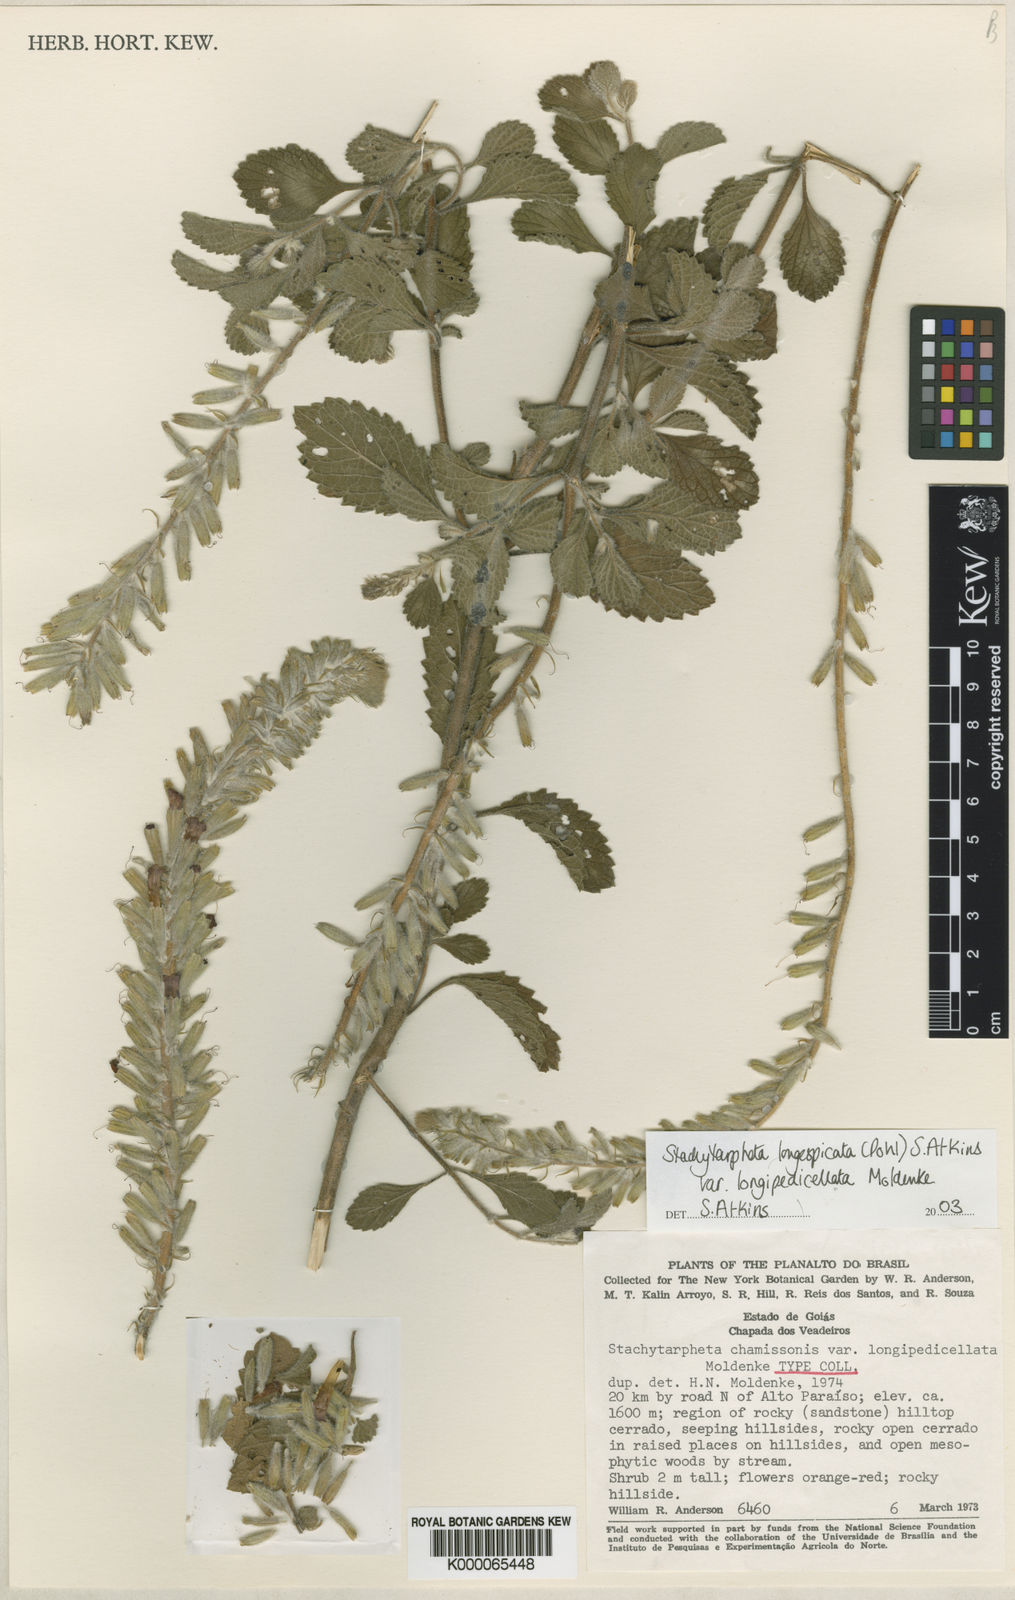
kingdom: Plantae
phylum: Tracheophyta
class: Magnoliopsida
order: Lamiales
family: Verbenaceae
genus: Stachytarpheta
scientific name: Stachytarpheta longispicata
